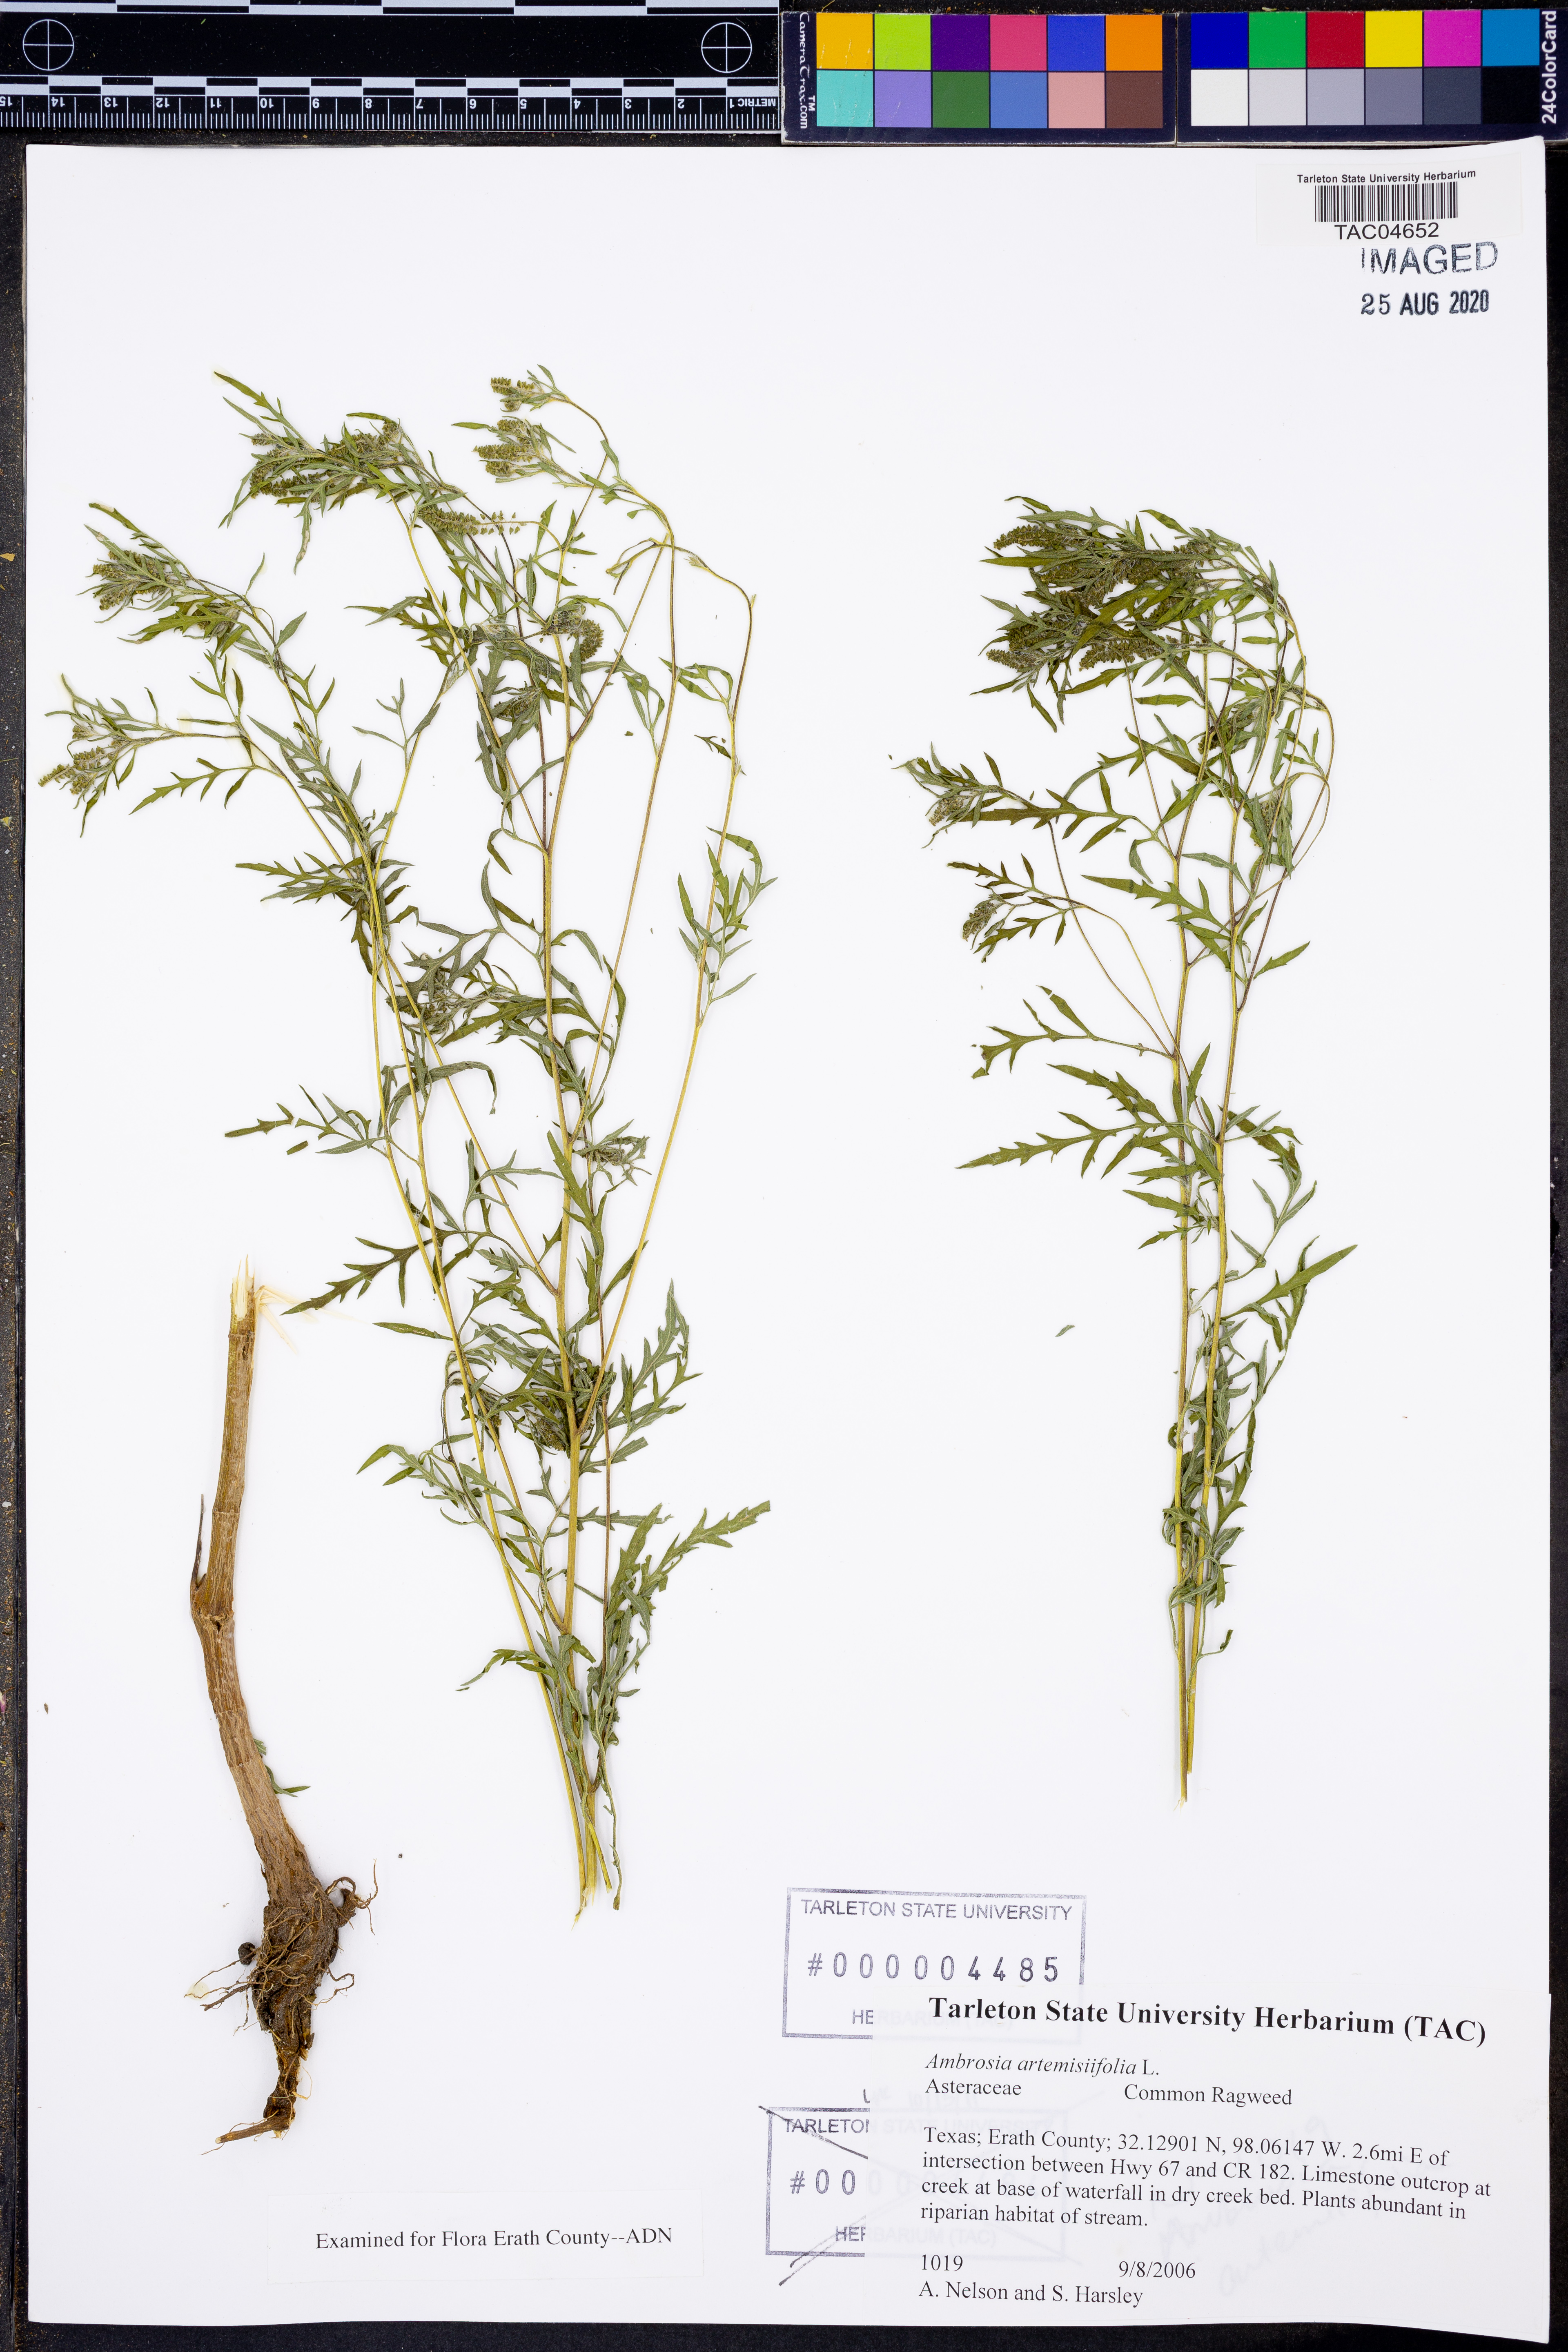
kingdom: Plantae
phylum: Tracheophyta
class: Magnoliopsida
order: Asterales
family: Asteraceae
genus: Ambrosia
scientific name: Ambrosia artemisiifolia
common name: Annual ragweed
